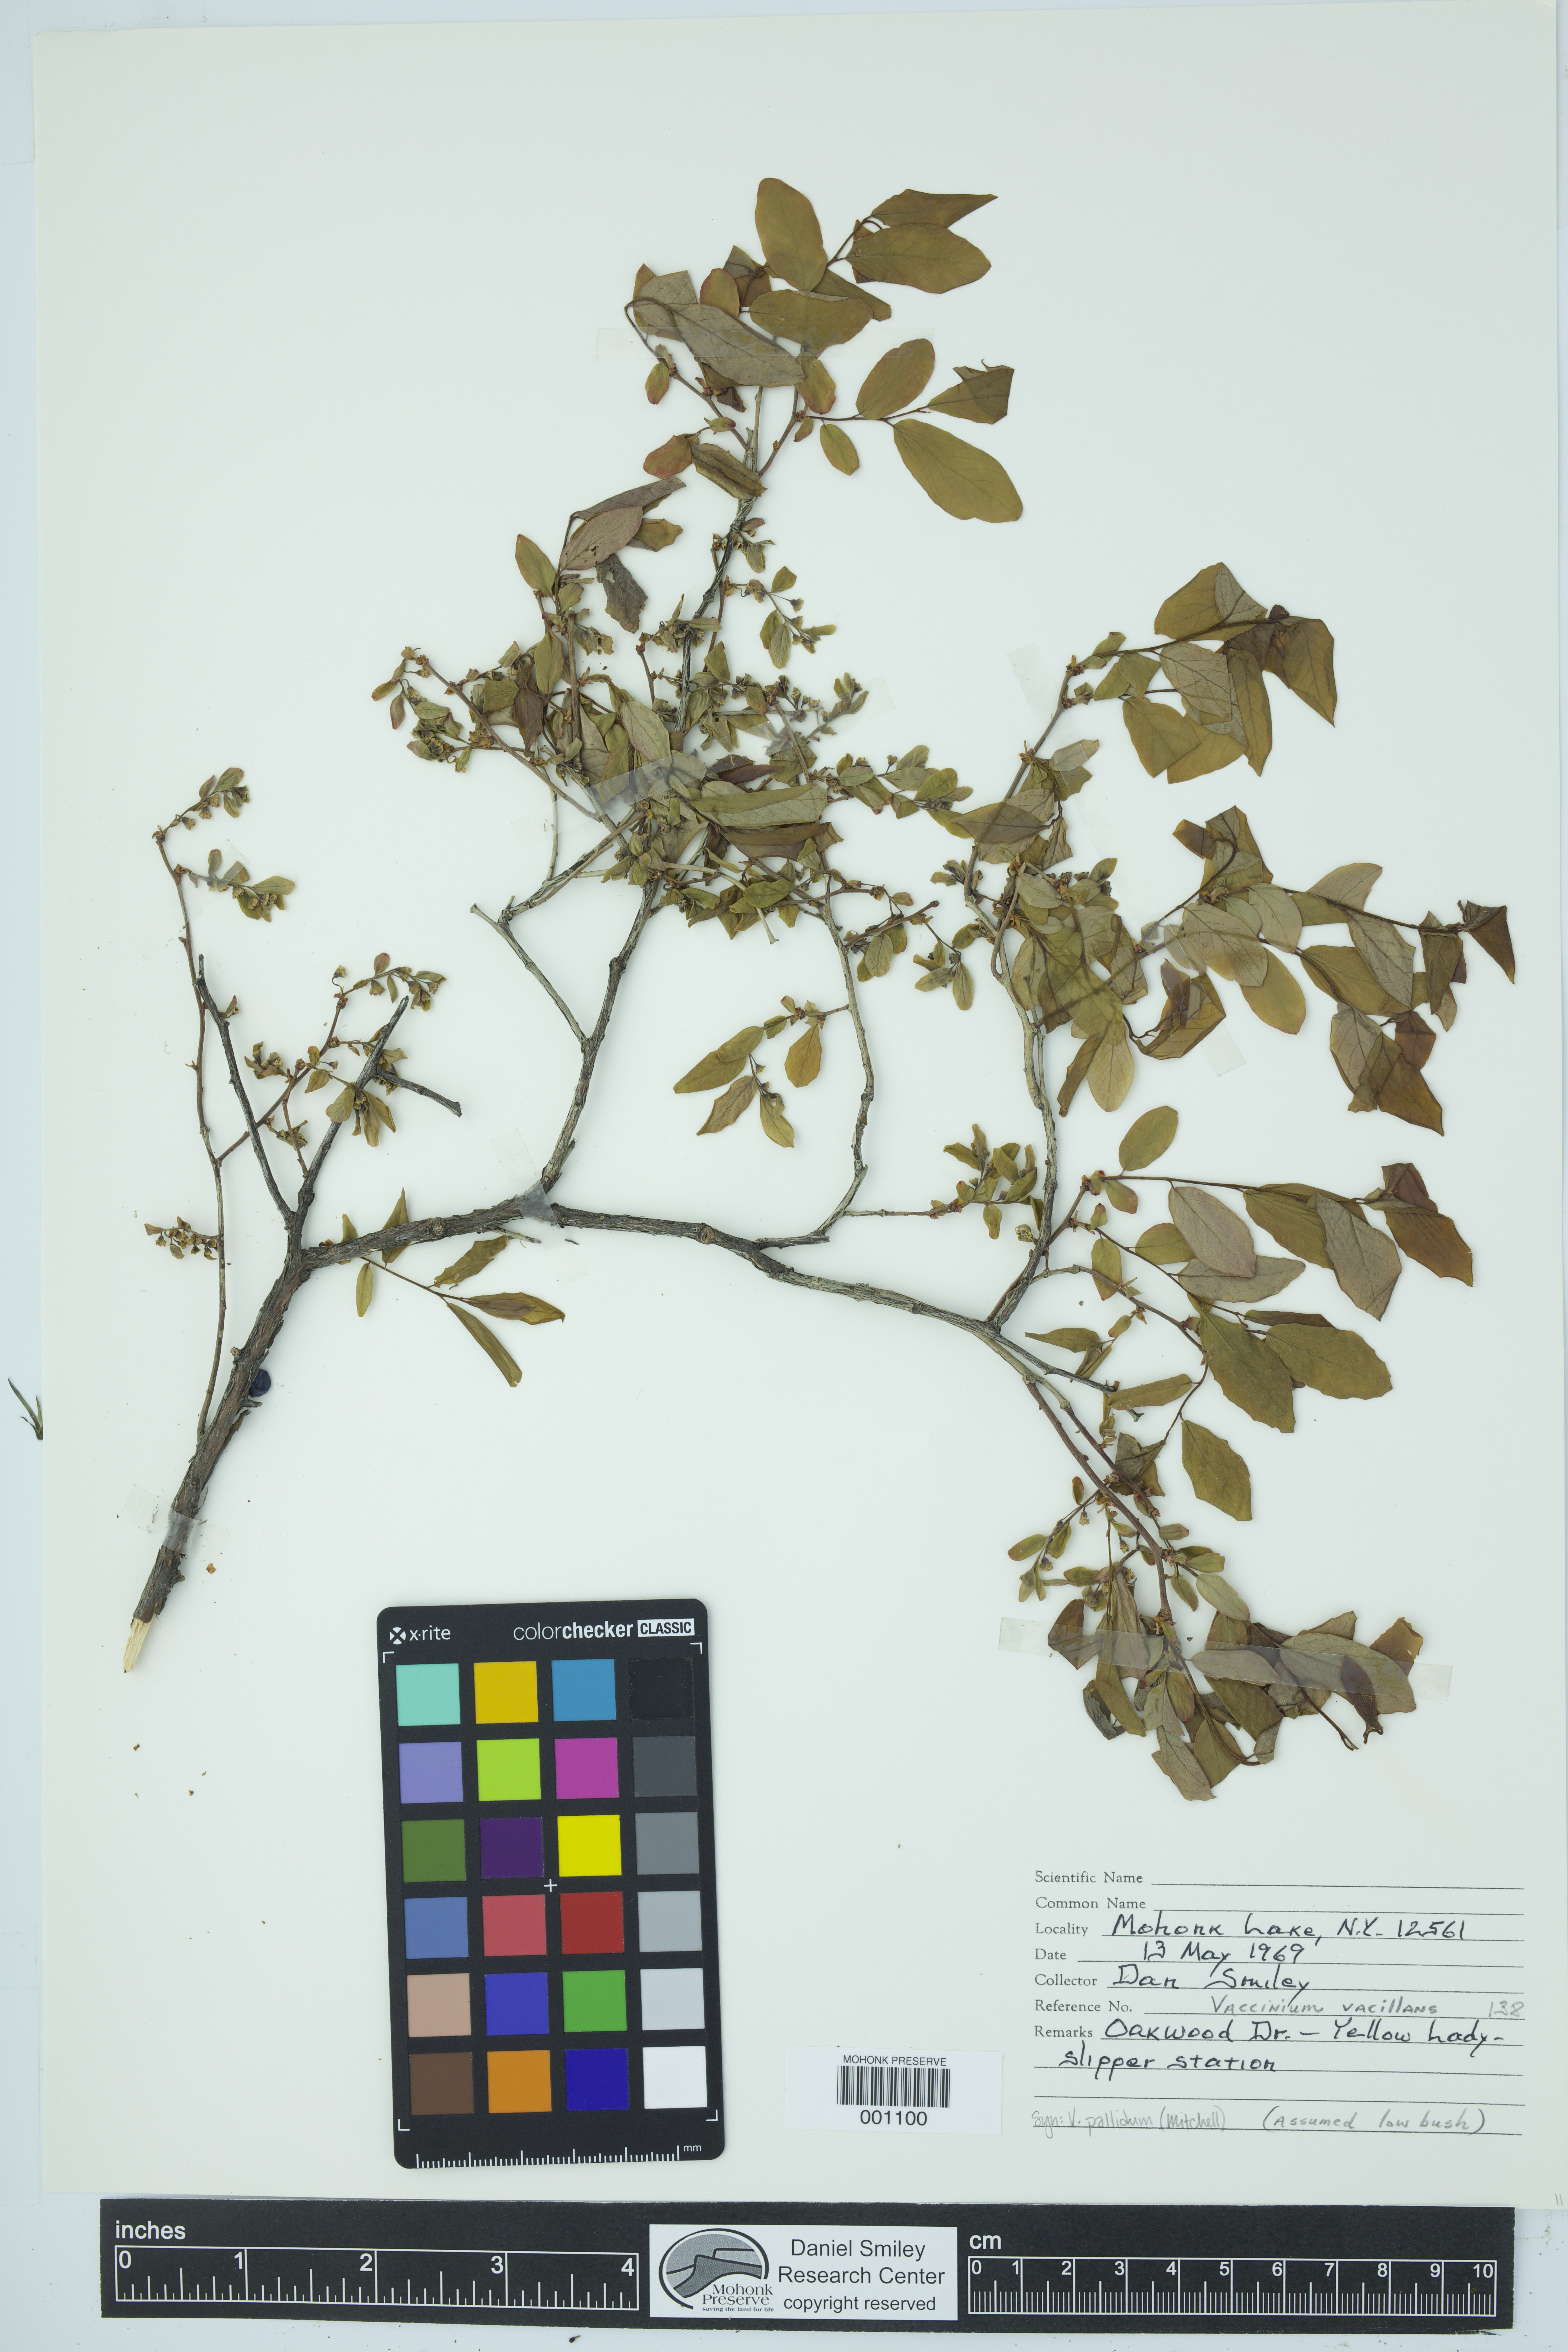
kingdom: Plantae
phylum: Tracheophyta
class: Magnoliopsida
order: Ericales
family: Ericaceae
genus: Vaccinium
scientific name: Vaccinium pallidum
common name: Blue ridge blueberry
